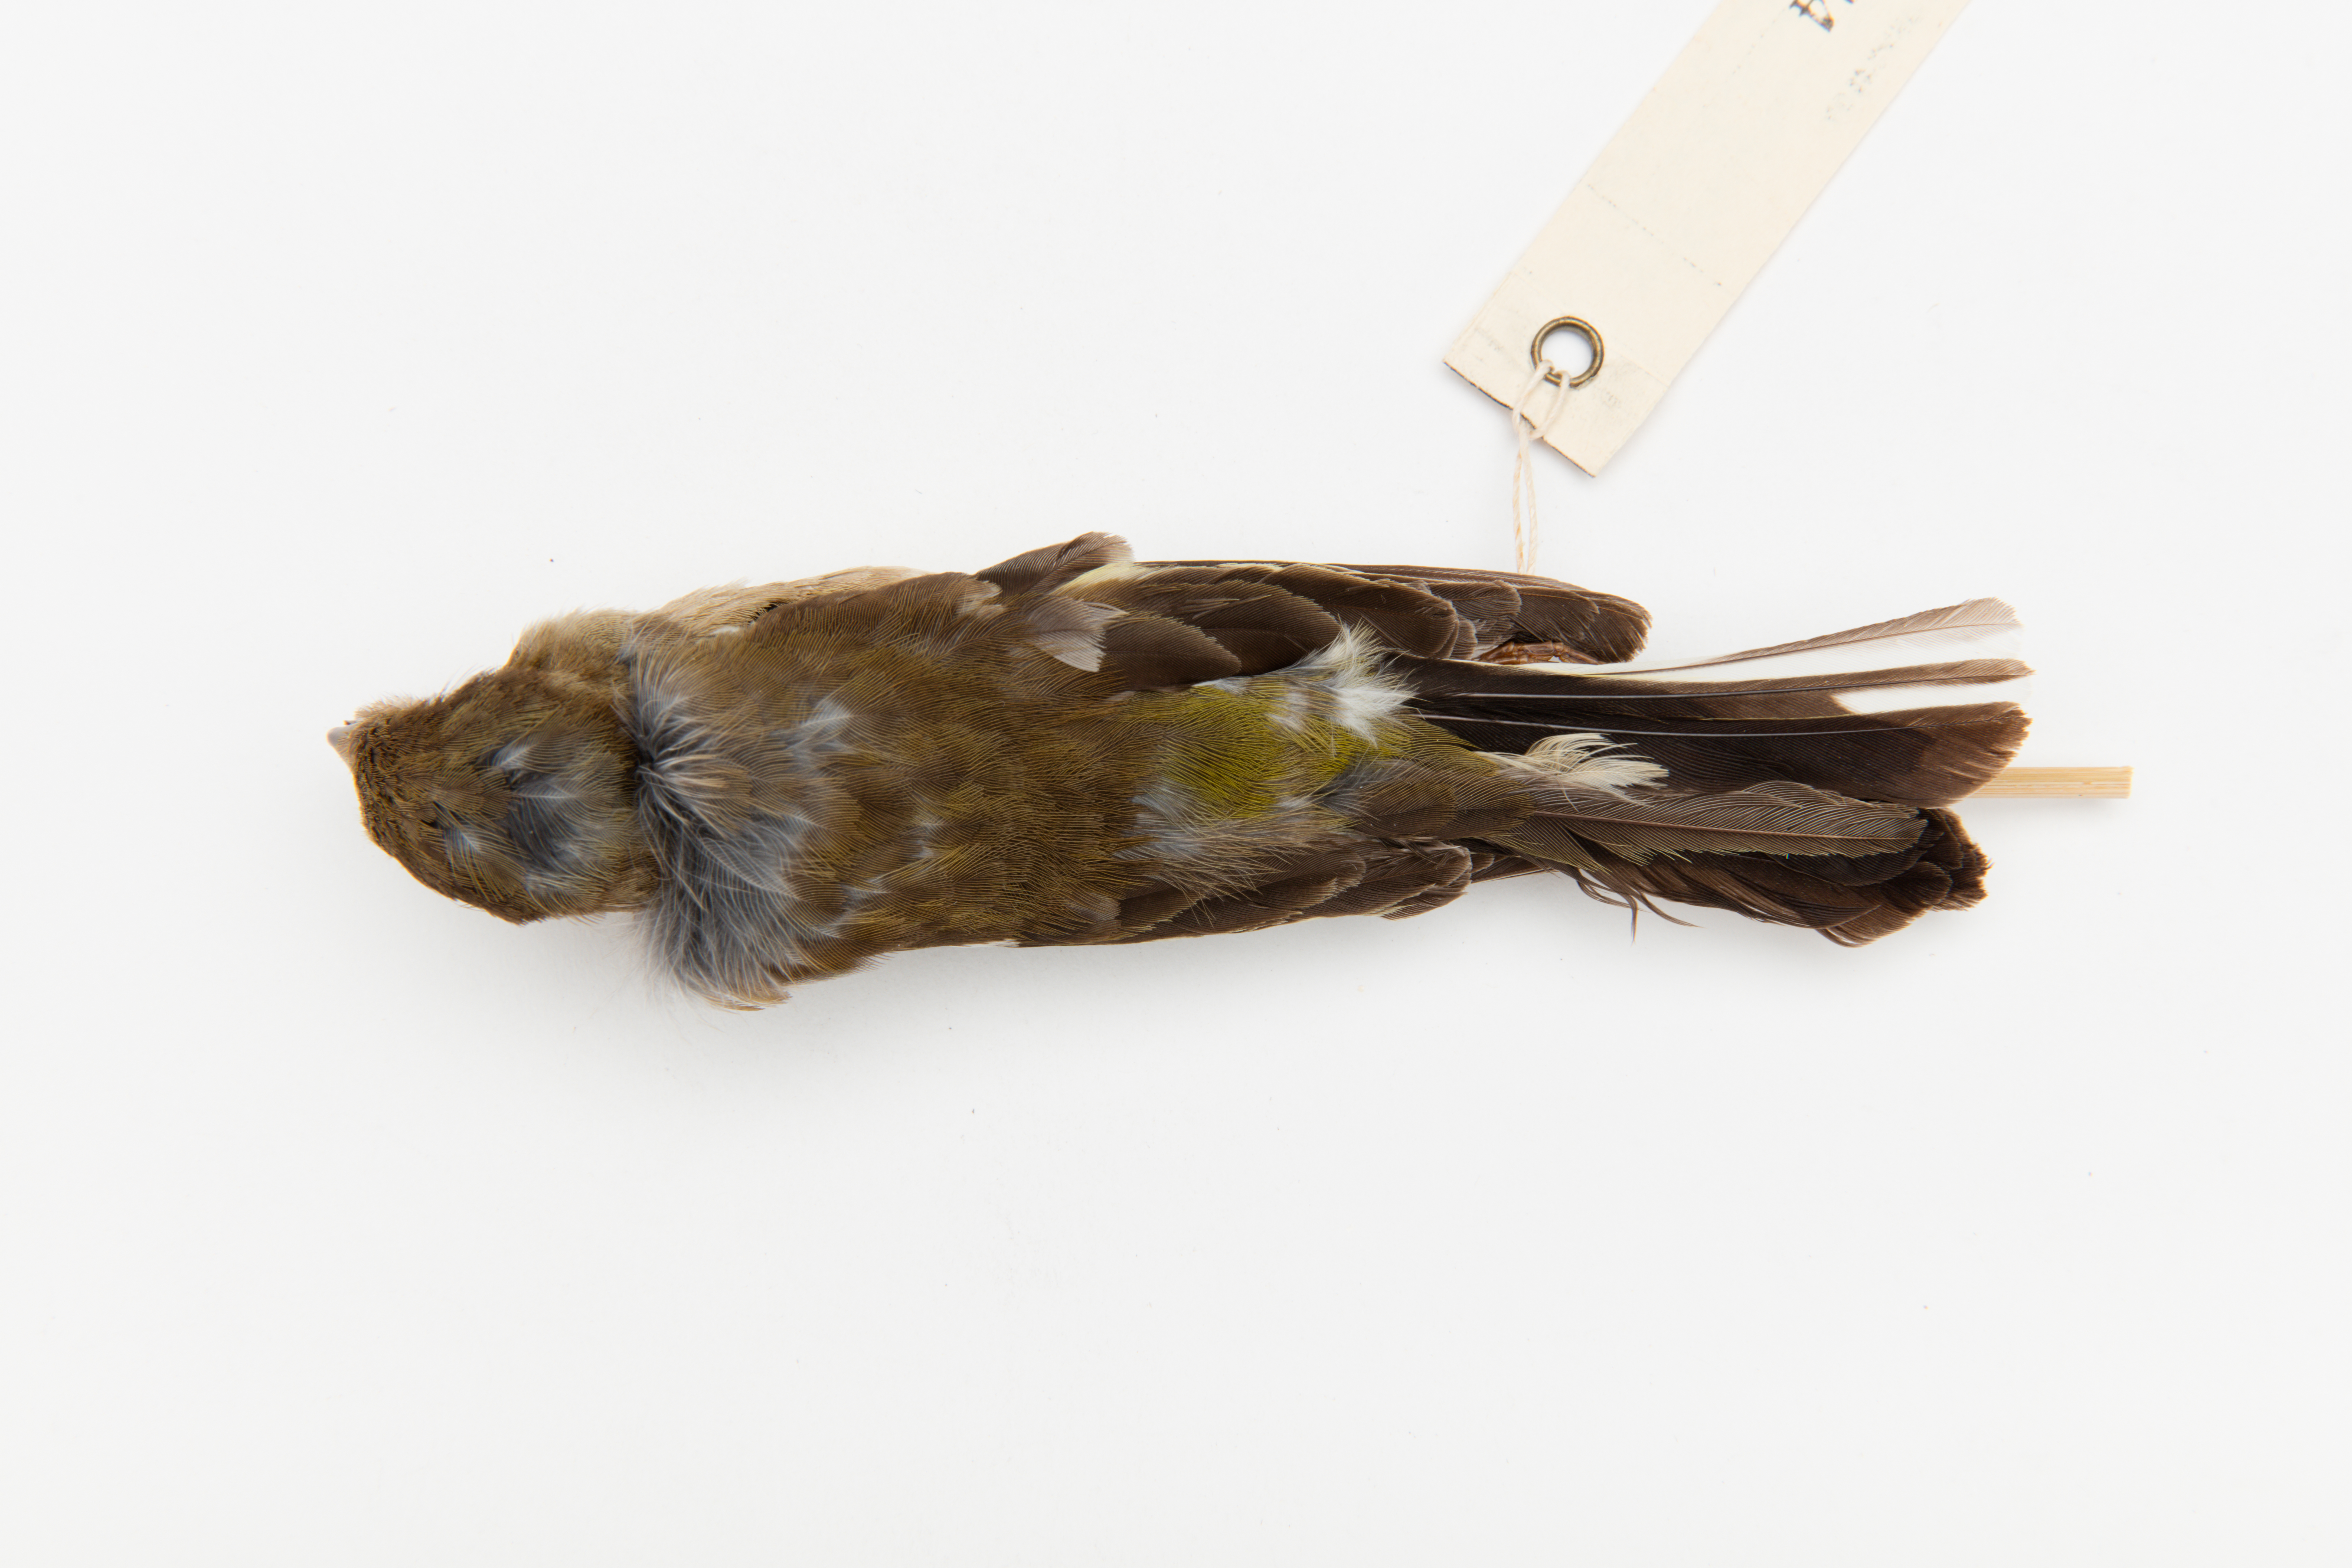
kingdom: Animalia
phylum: Chordata
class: Aves
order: Passeriformes
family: Fringillidae
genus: Fringilla
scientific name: Fringilla coelebs
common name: Common chaffinch
